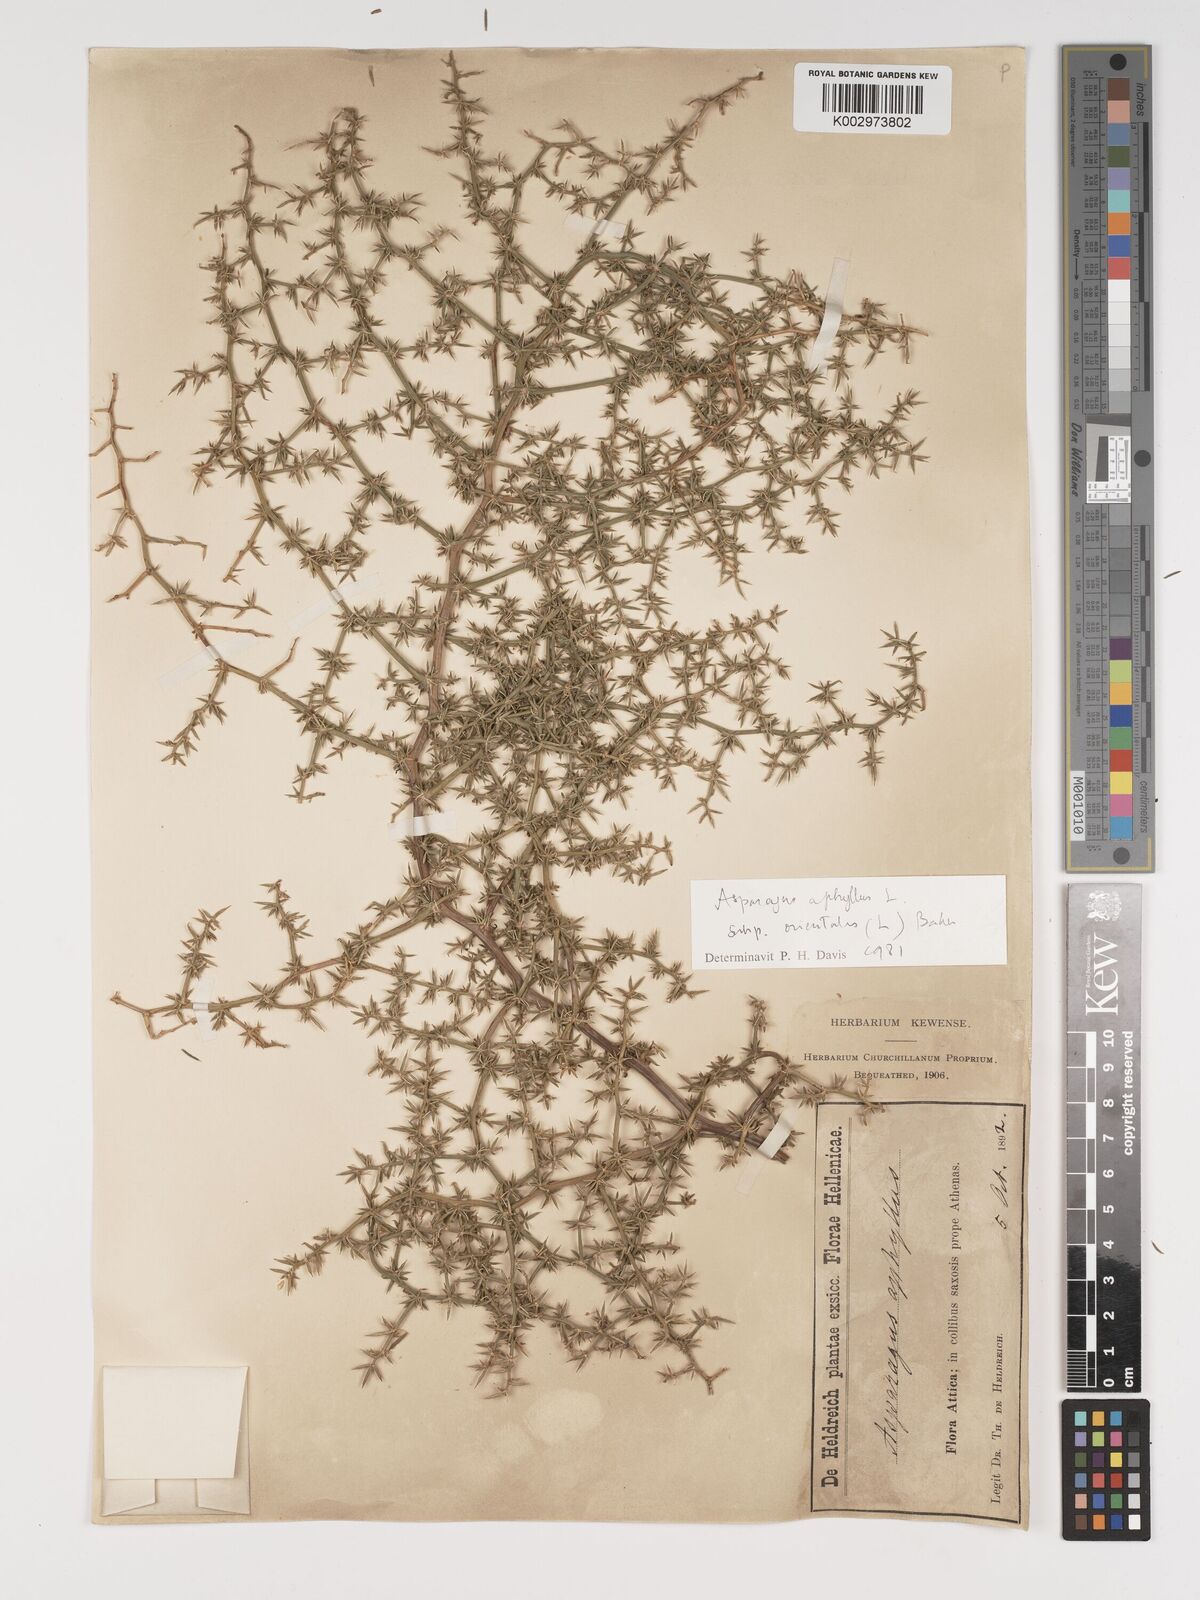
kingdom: Plantae
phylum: Tracheophyta
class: Liliopsida
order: Asparagales
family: Asparagaceae
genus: Asparagus
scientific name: Asparagus aphyllus
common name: Mediterranean asparagus
